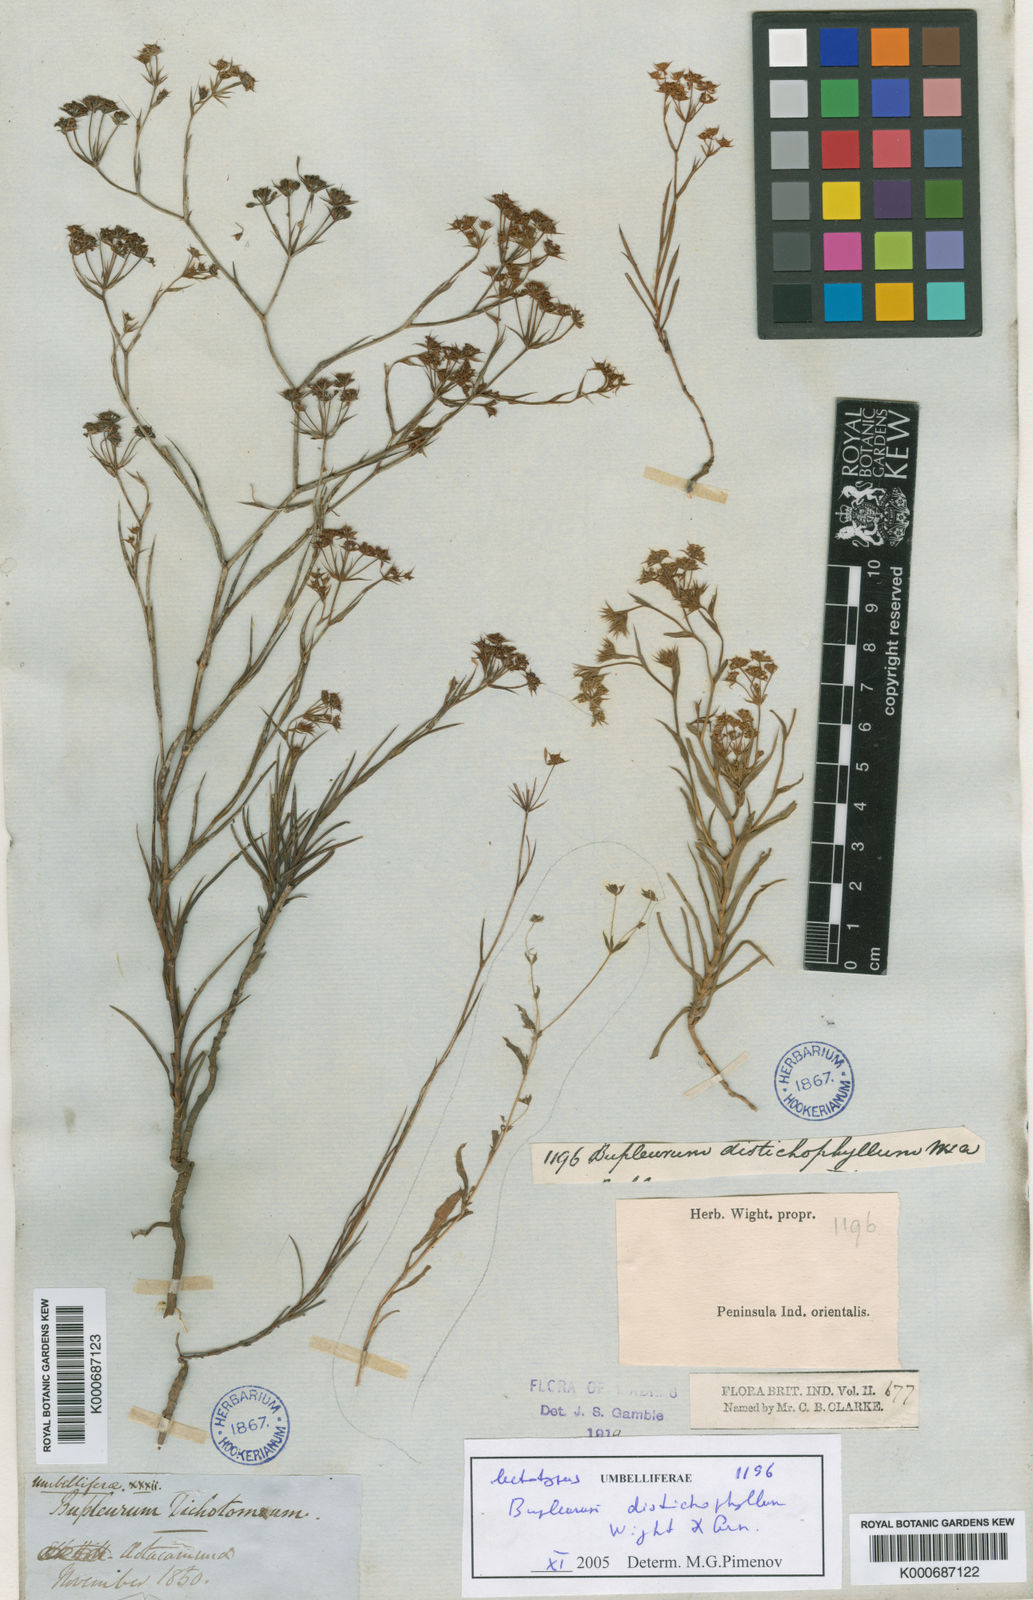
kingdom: Plantae
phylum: Tracheophyta
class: Magnoliopsida
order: Apiales
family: Apiaceae
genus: Bupleurum
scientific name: Bupleurum distichophyllum
